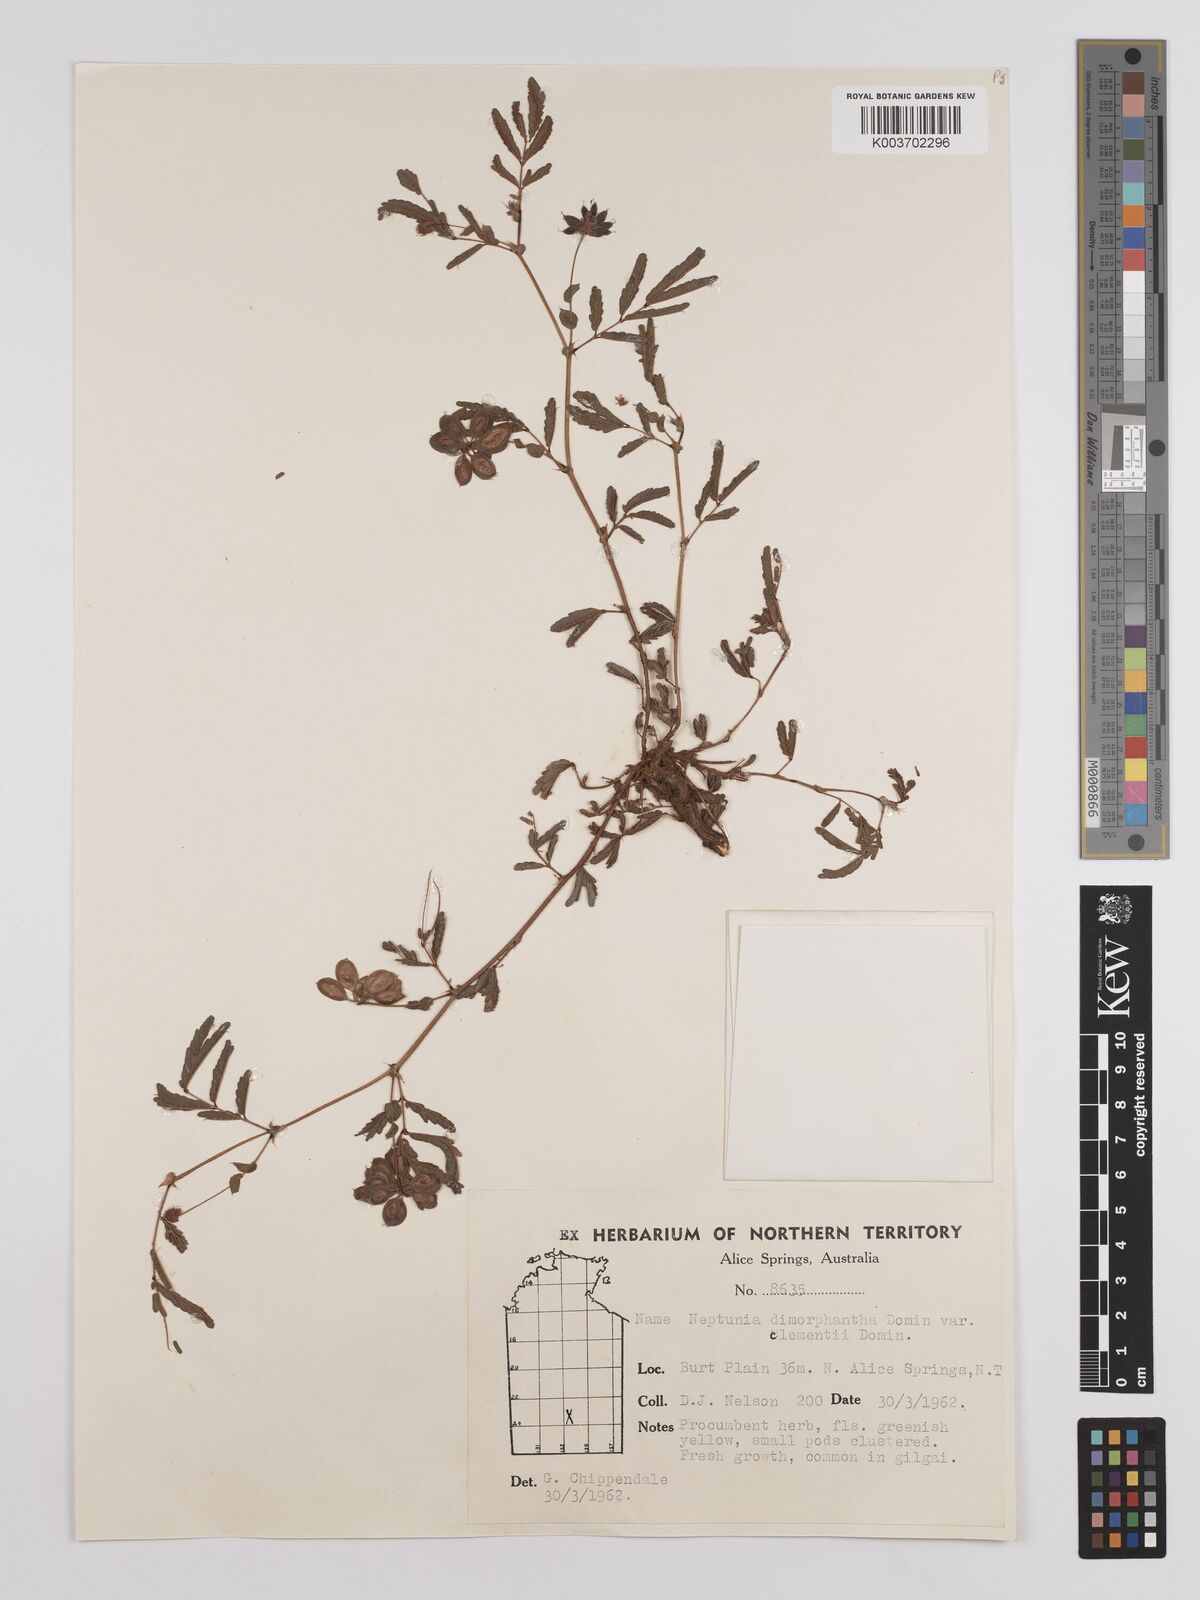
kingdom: Plantae
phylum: Tracheophyta
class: Magnoliopsida
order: Fabales
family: Fabaceae
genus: Neptunia
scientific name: Neptunia dimorphantha
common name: Sensitive-plant
